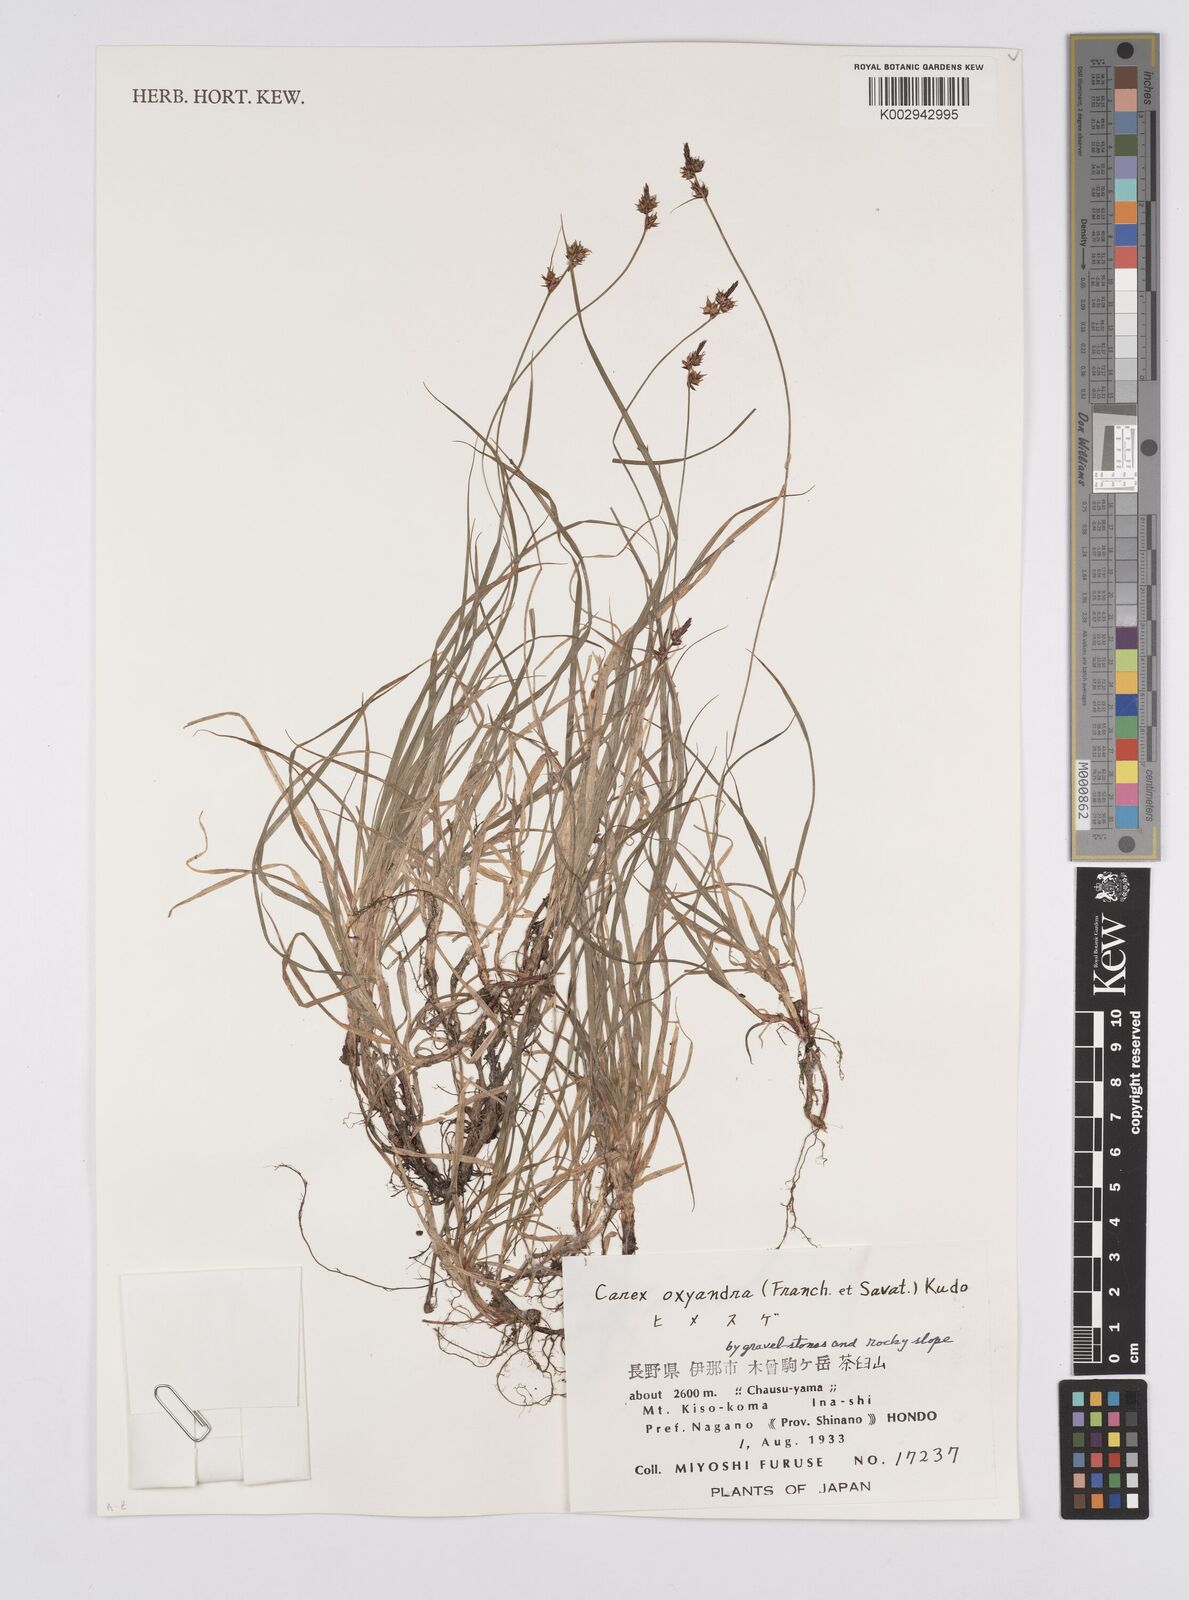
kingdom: Plantae
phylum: Tracheophyta
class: Liliopsida
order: Poales
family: Cyperaceae
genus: Carex
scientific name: Carex oxyandra
